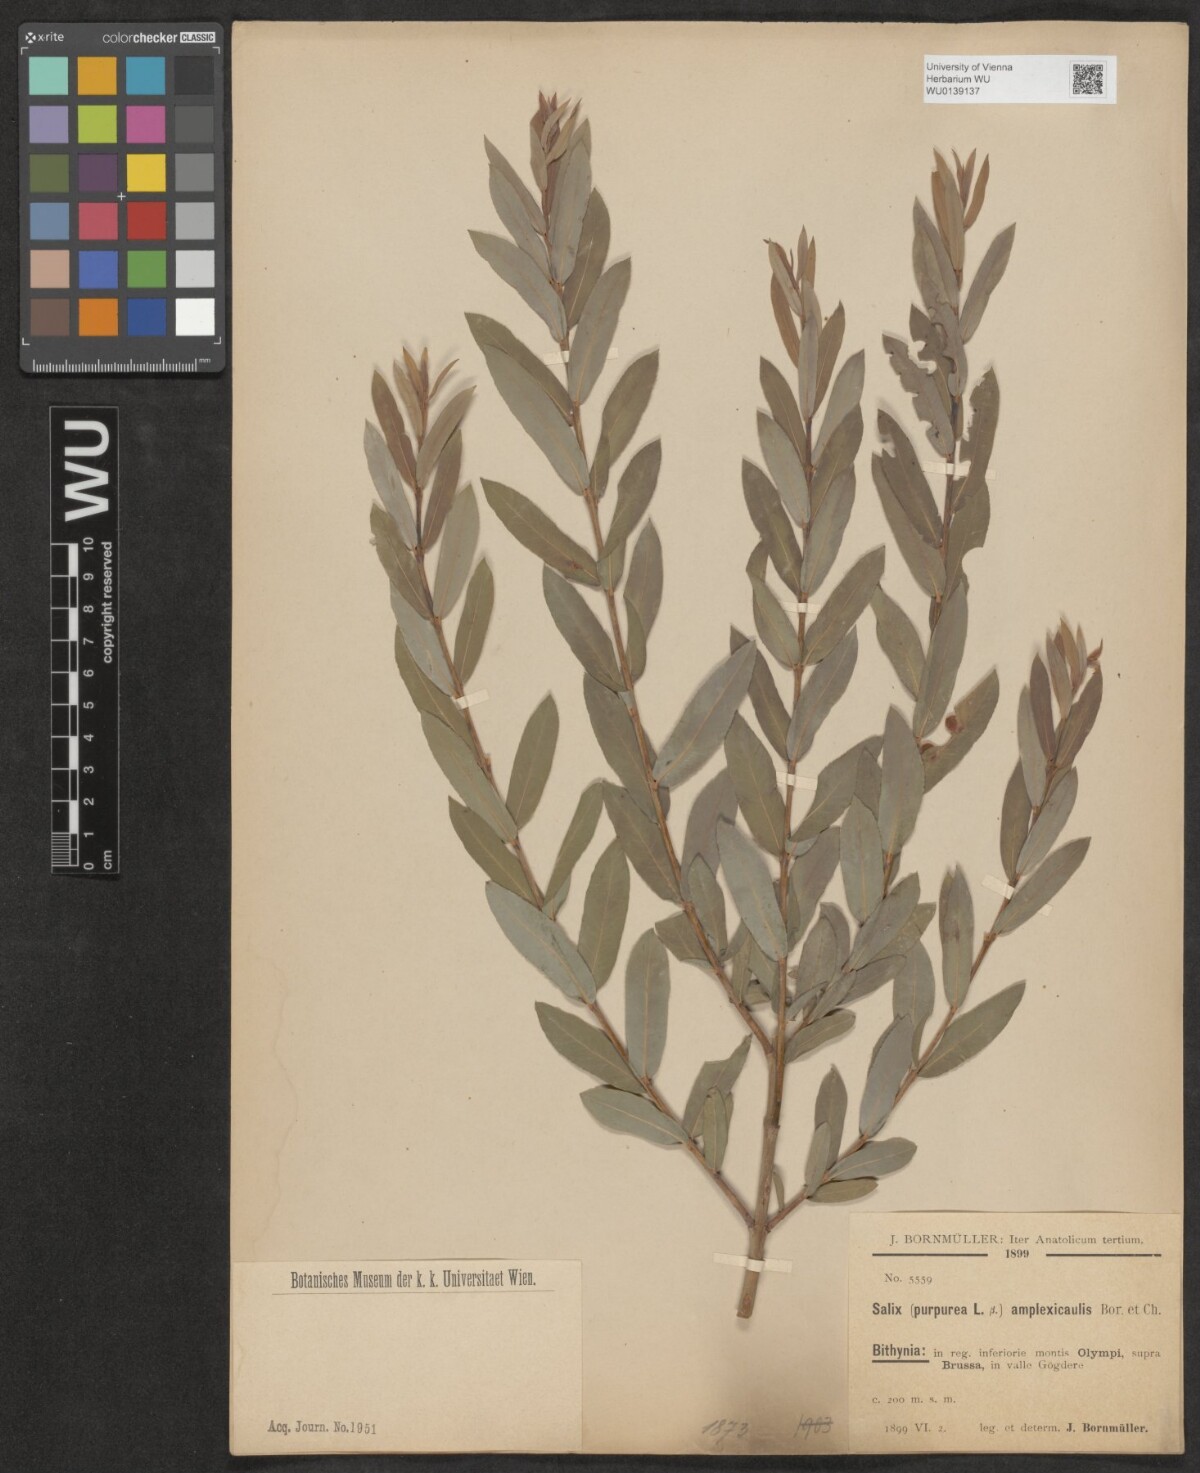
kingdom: Plantae
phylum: Tracheophyta
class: Magnoliopsida
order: Malpighiales
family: Salicaceae
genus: Salix
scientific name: Salix amplexicaulis
